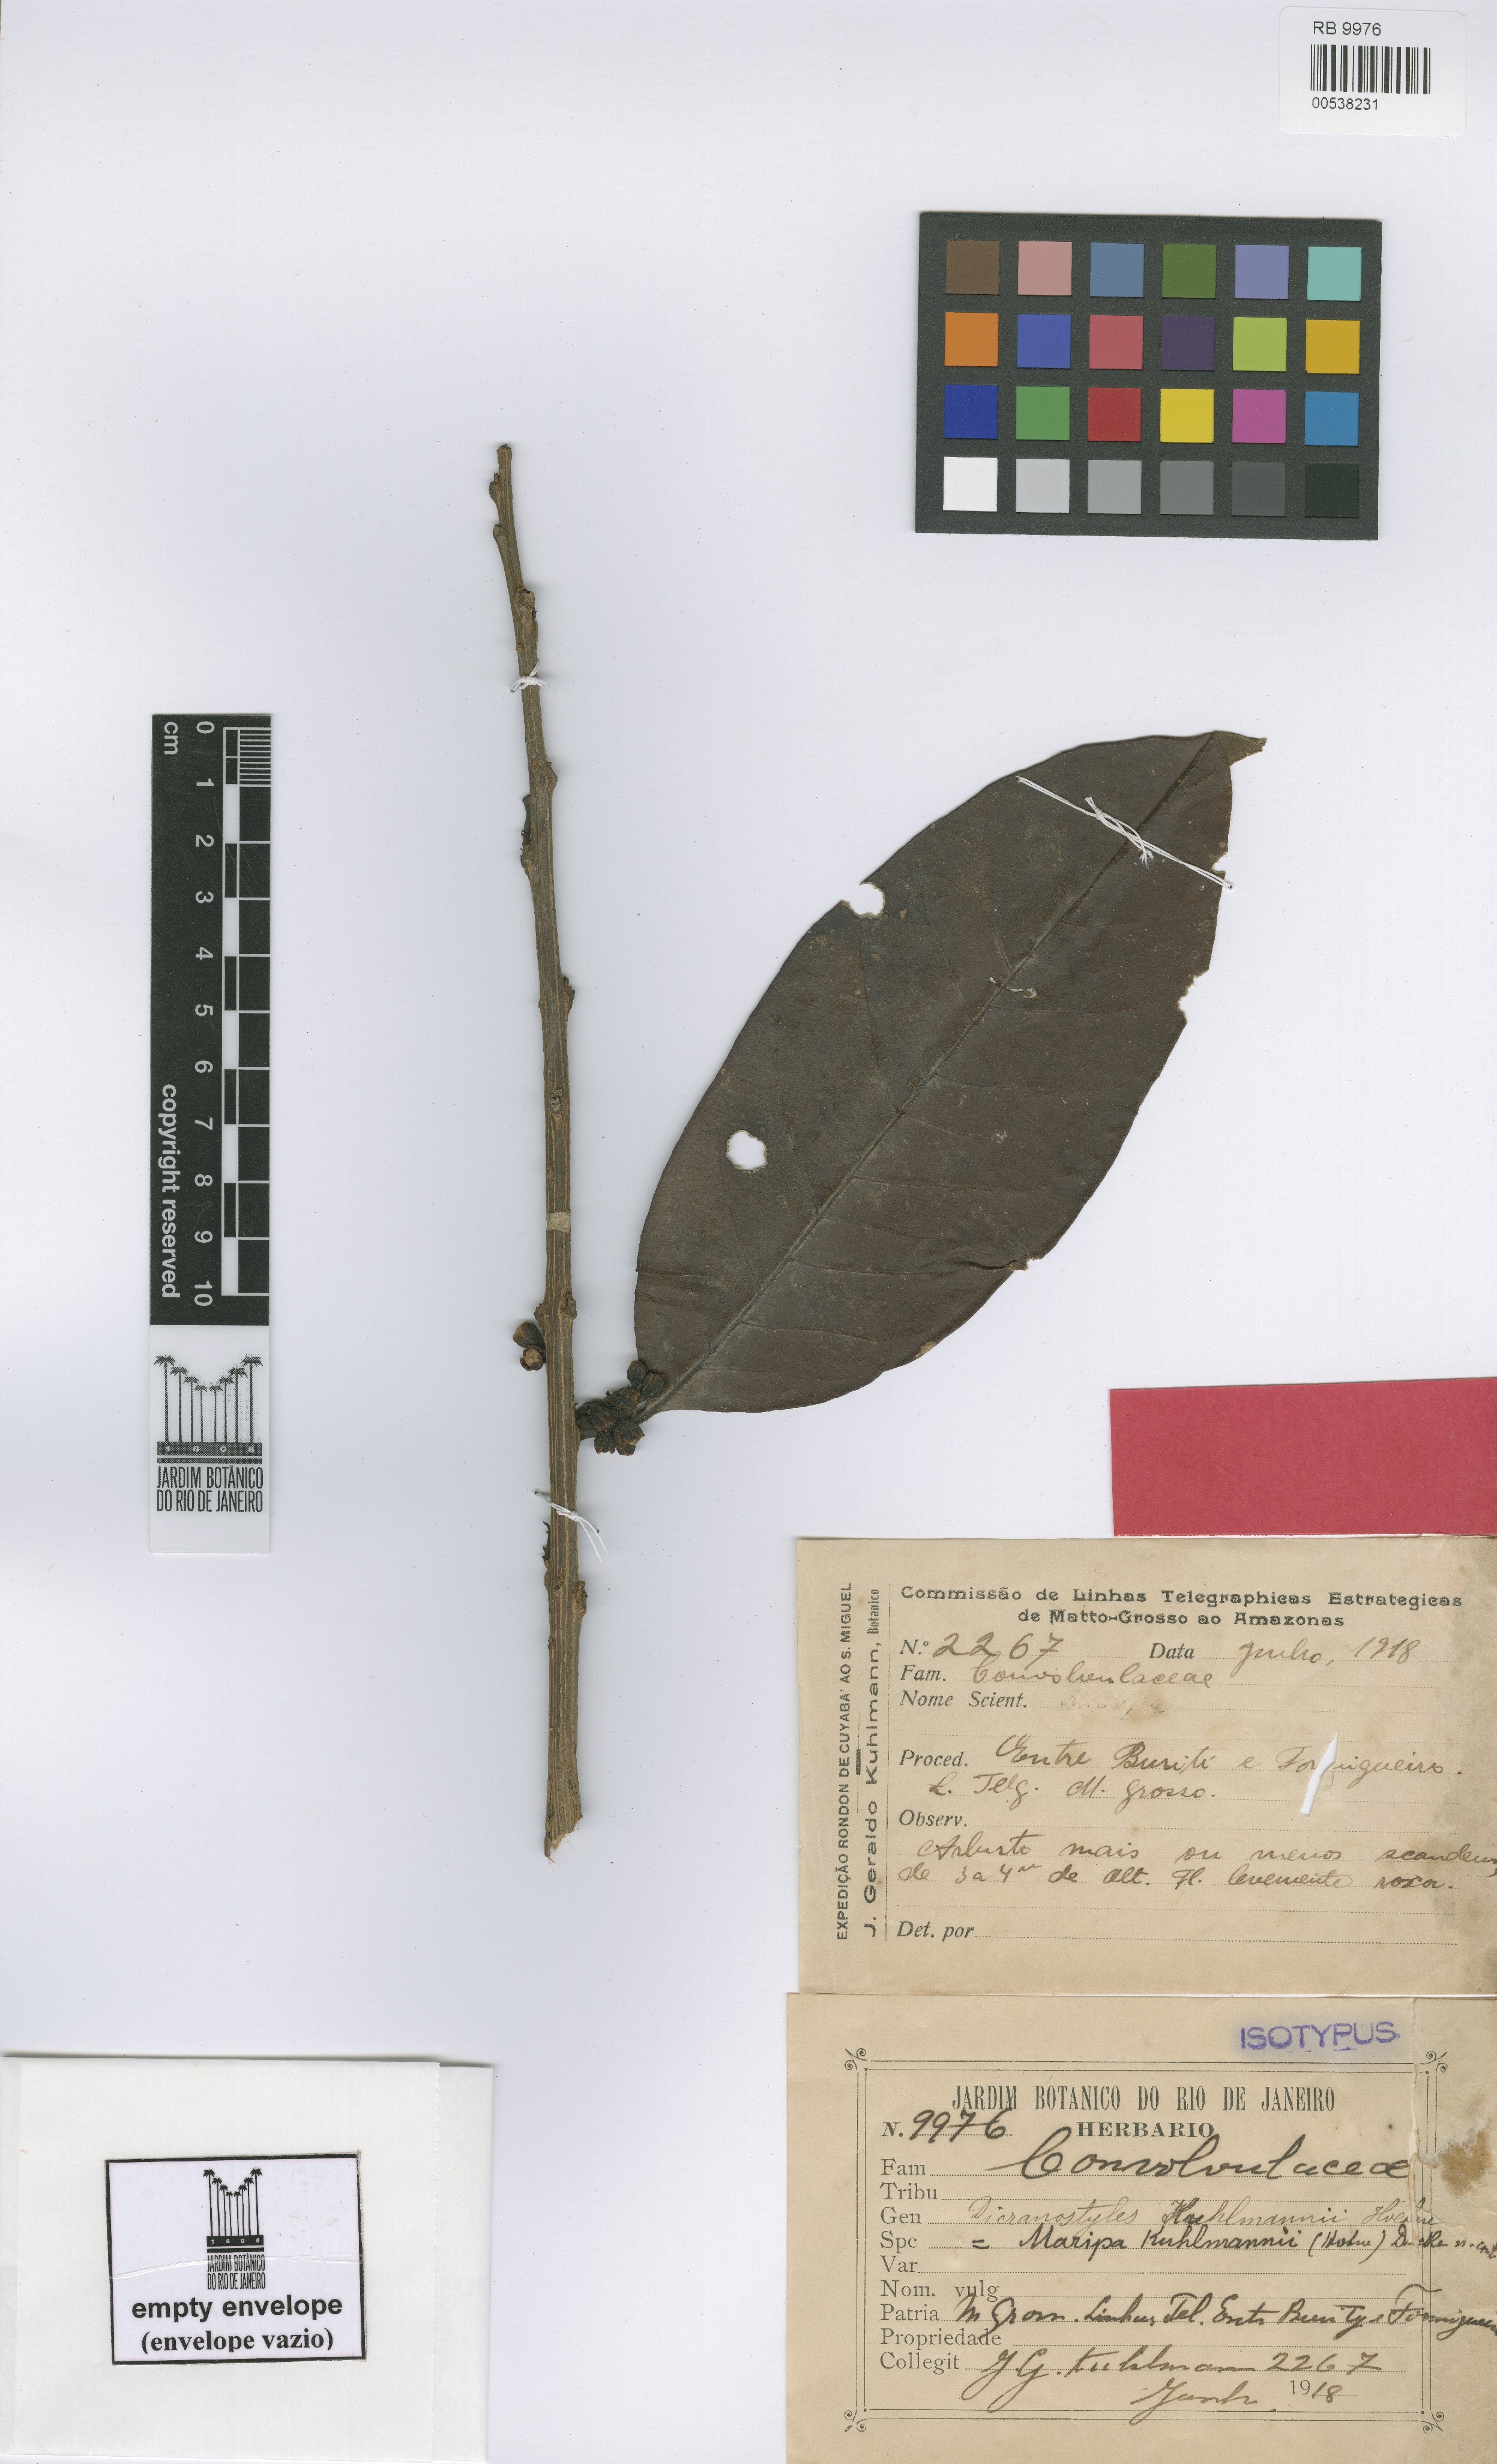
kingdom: Plantae
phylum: Tracheophyta
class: Magnoliopsida
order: Solanales
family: Convolvulaceae
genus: Maripa
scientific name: Maripa axilliflora
